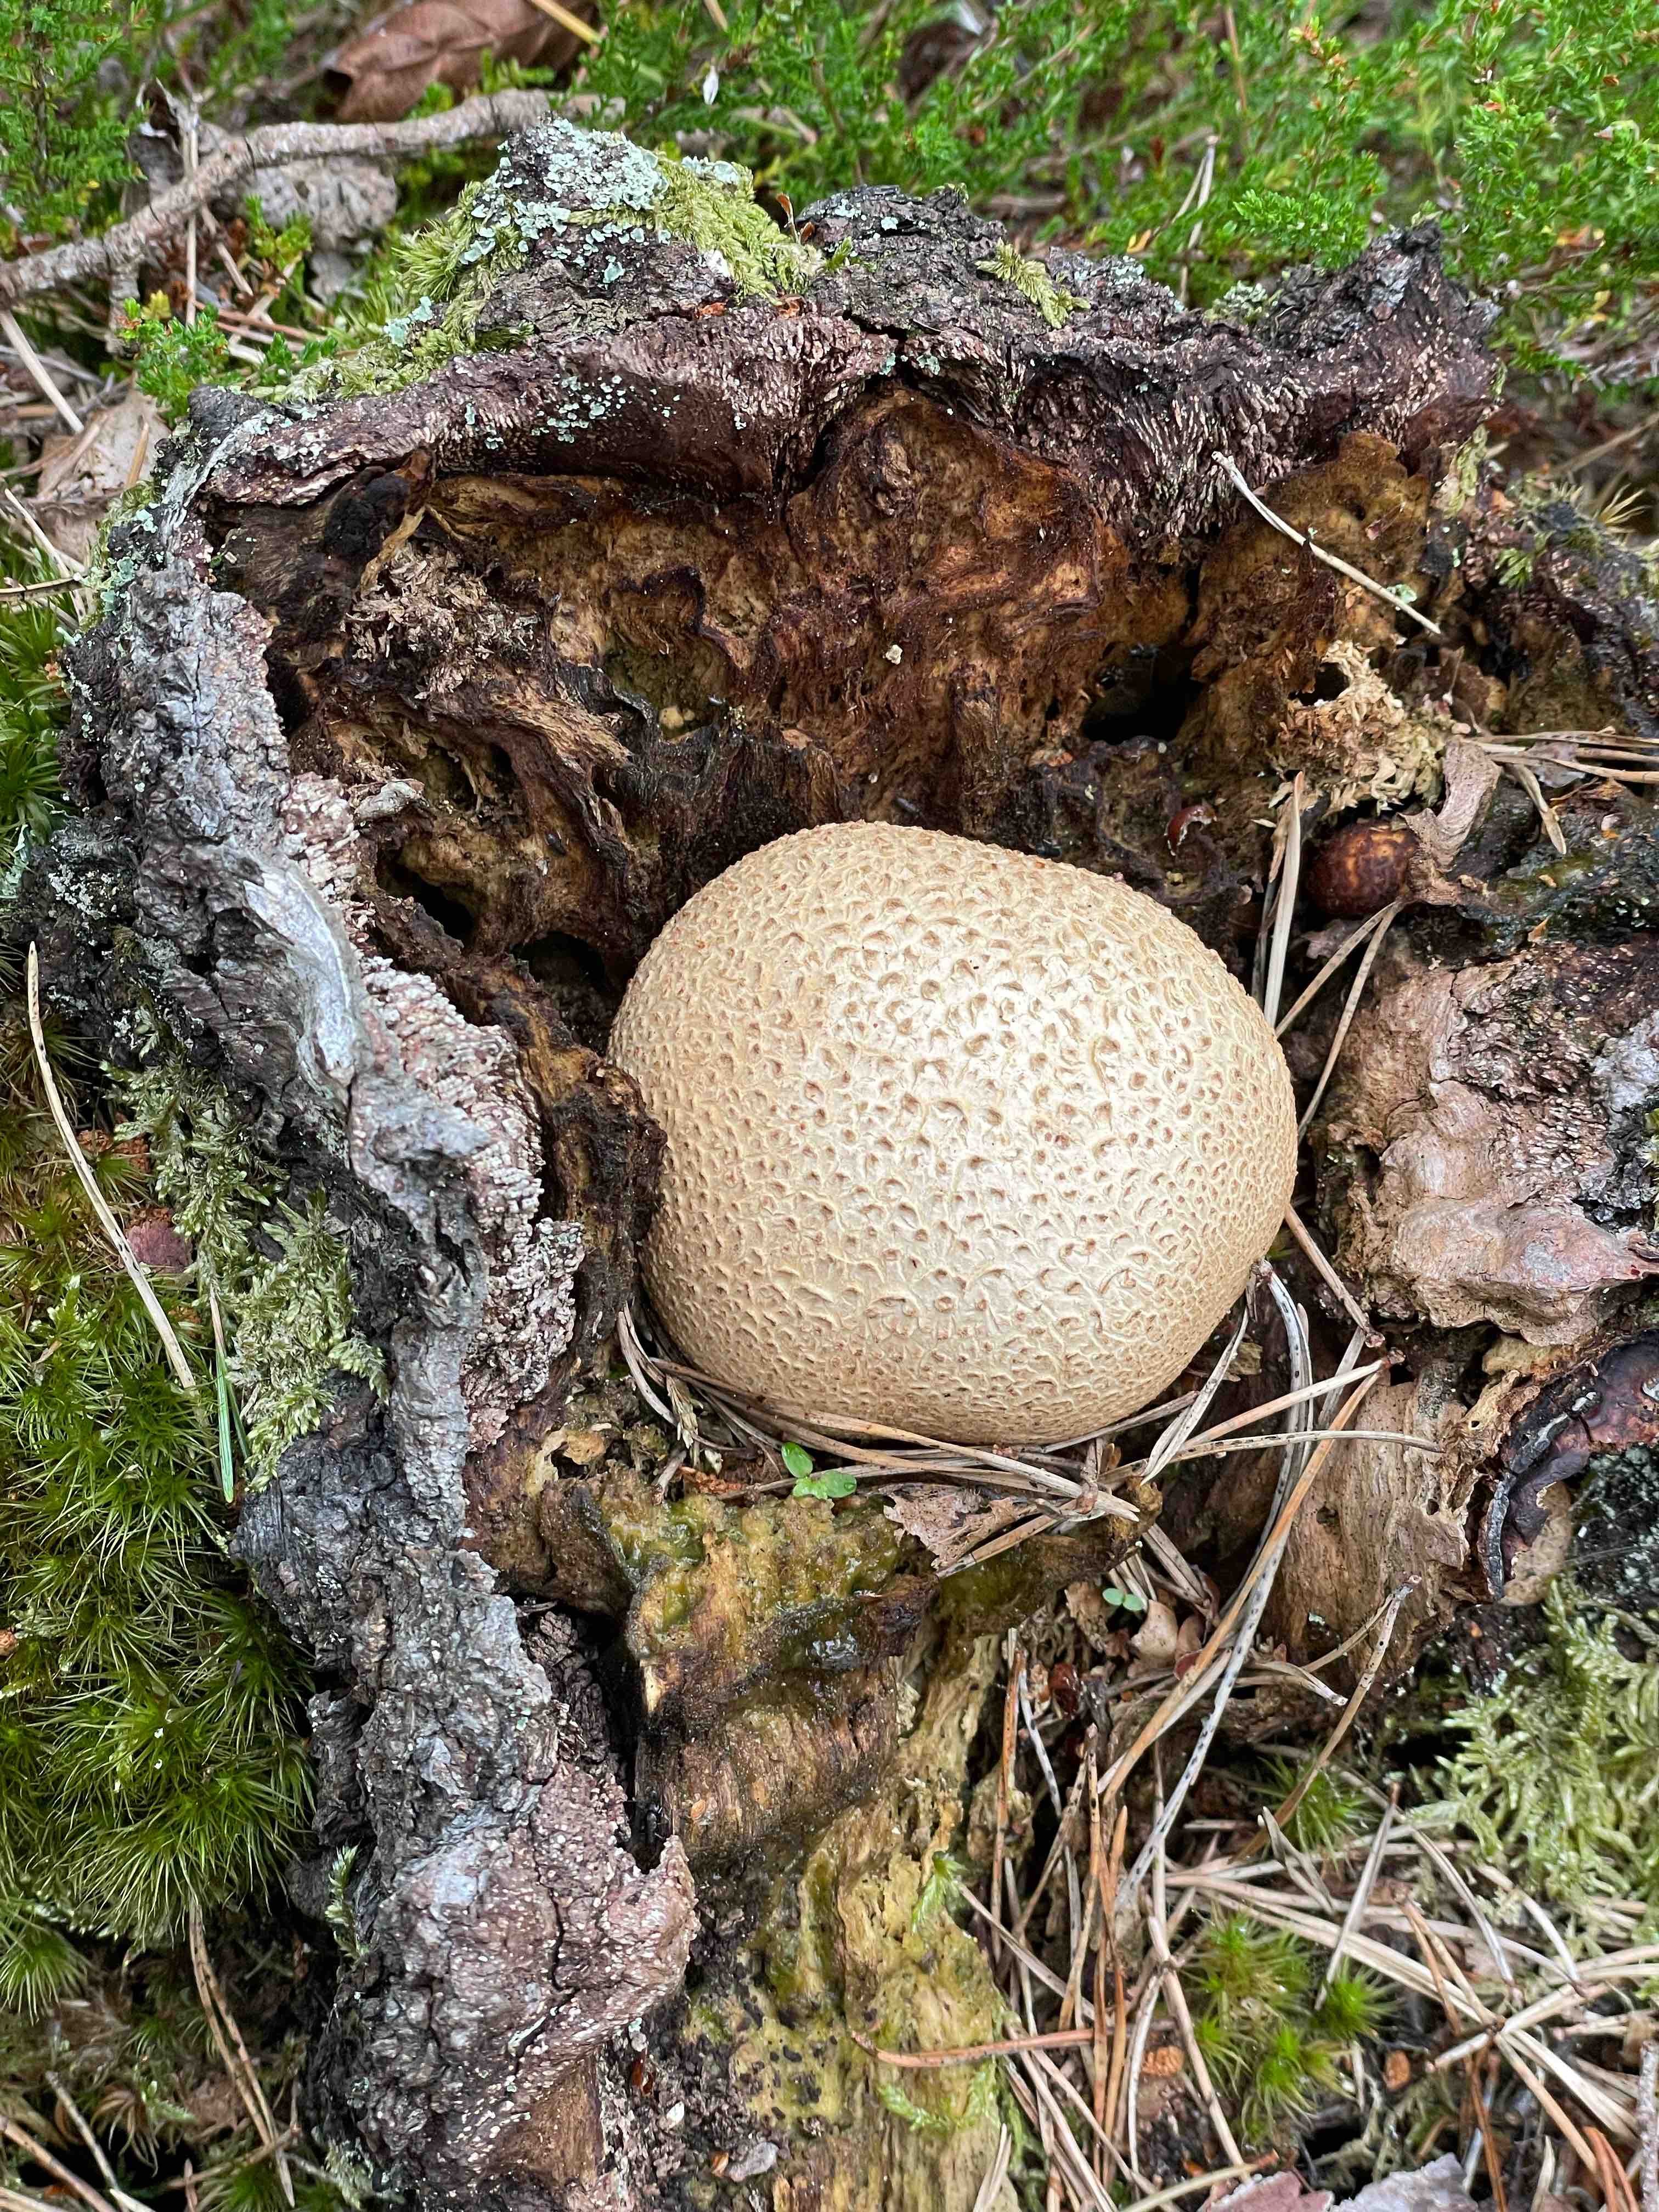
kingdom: Fungi
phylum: Basidiomycota
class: Agaricomycetes
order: Boletales
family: Sclerodermataceae
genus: Scleroderma
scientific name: Scleroderma citrinum
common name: almindelig bruskbold
